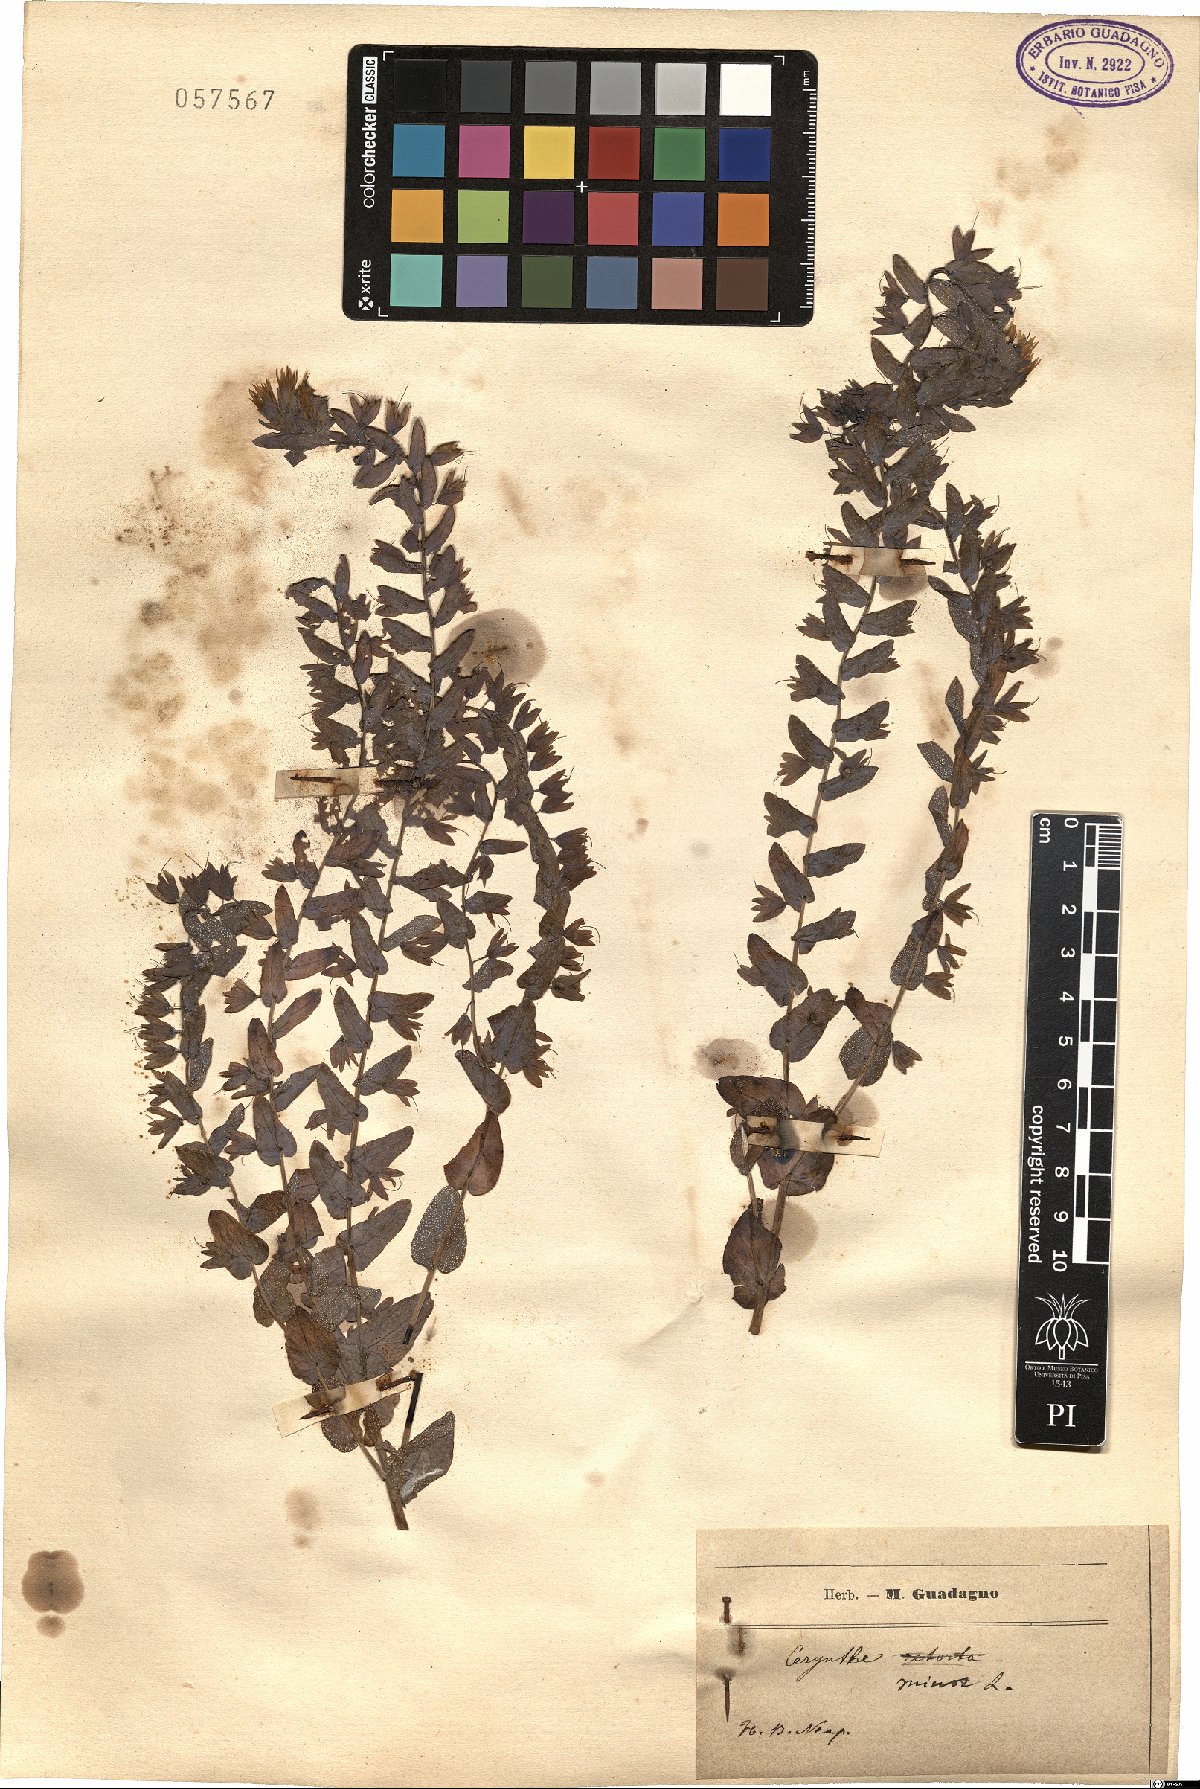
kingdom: Plantae
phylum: Tracheophyta
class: Magnoliopsida
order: Boraginales
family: Boraginaceae
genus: Cerinthe
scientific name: Cerinthe minor
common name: Lesser honeywort
